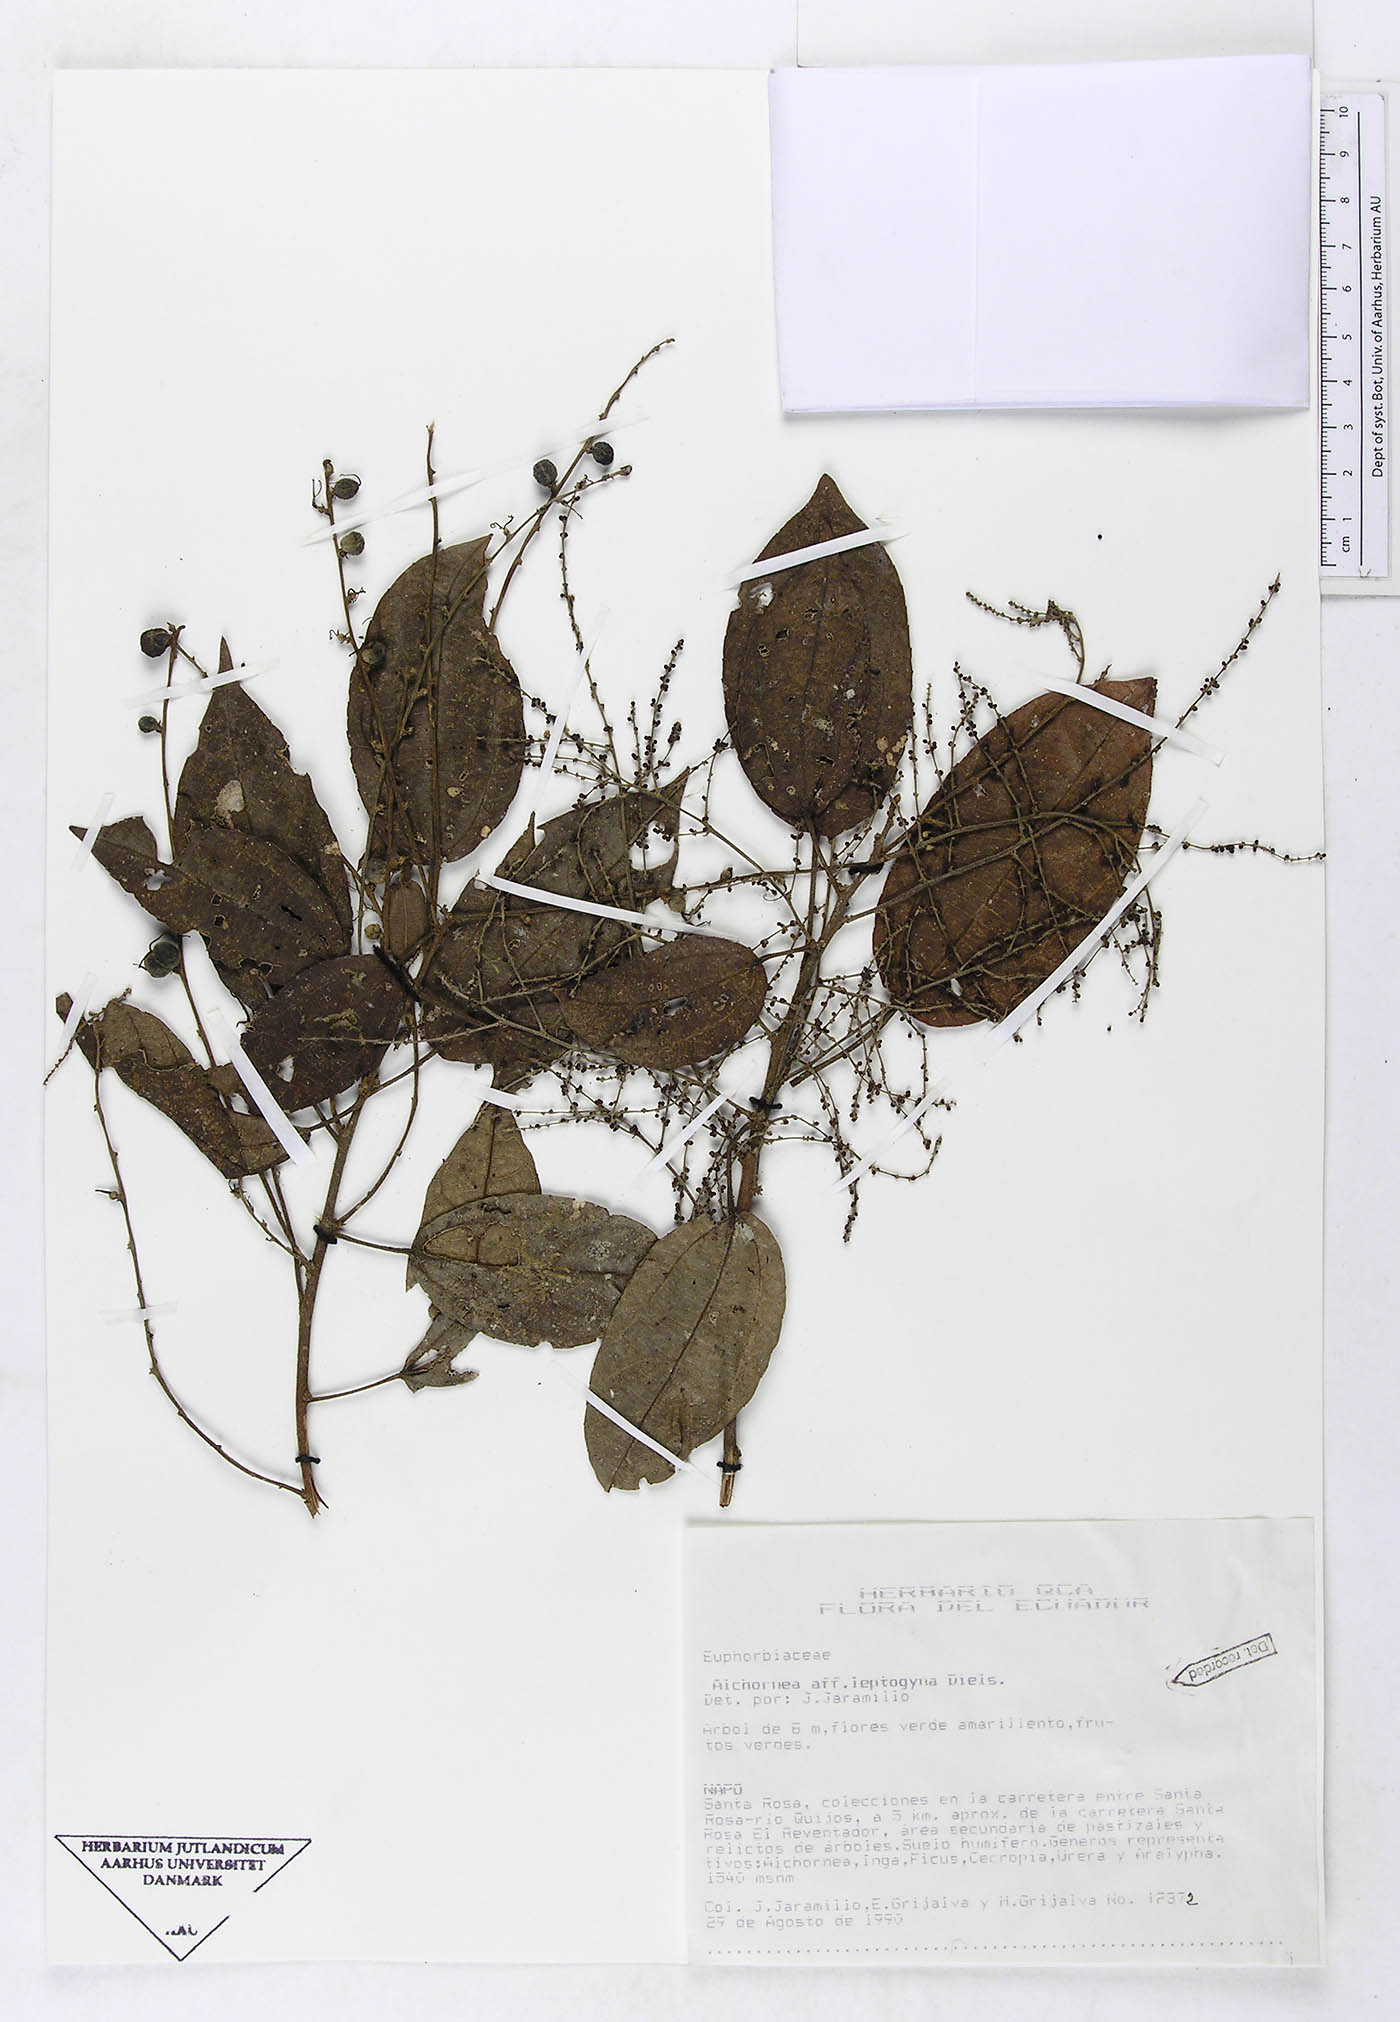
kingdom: Plantae
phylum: Tracheophyta
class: Magnoliopsida
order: Malpighiales
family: Euphorbiaceae
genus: Alchornea
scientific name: Alchornea glandulosa
